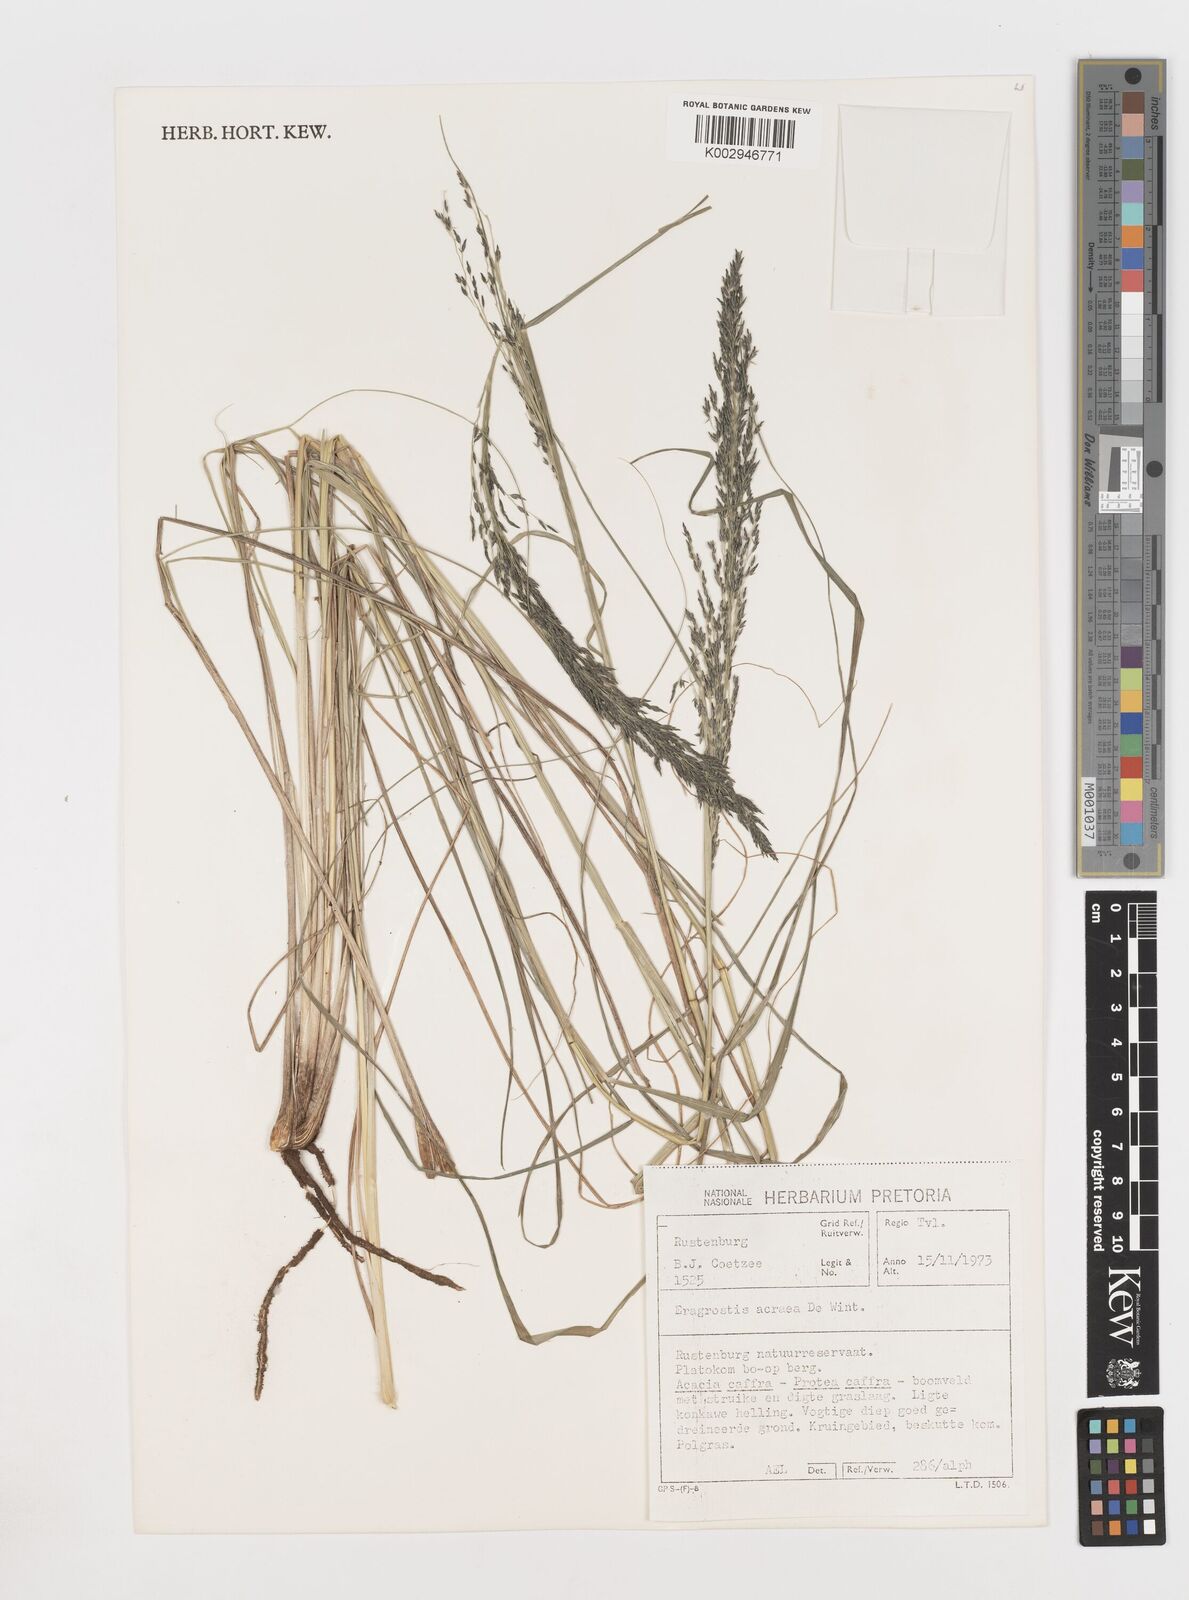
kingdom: Plantae
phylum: Tracheophyta
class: Liliopsida
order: Poales
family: Poaceae
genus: Eragrostis
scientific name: Eragrostis acraea
